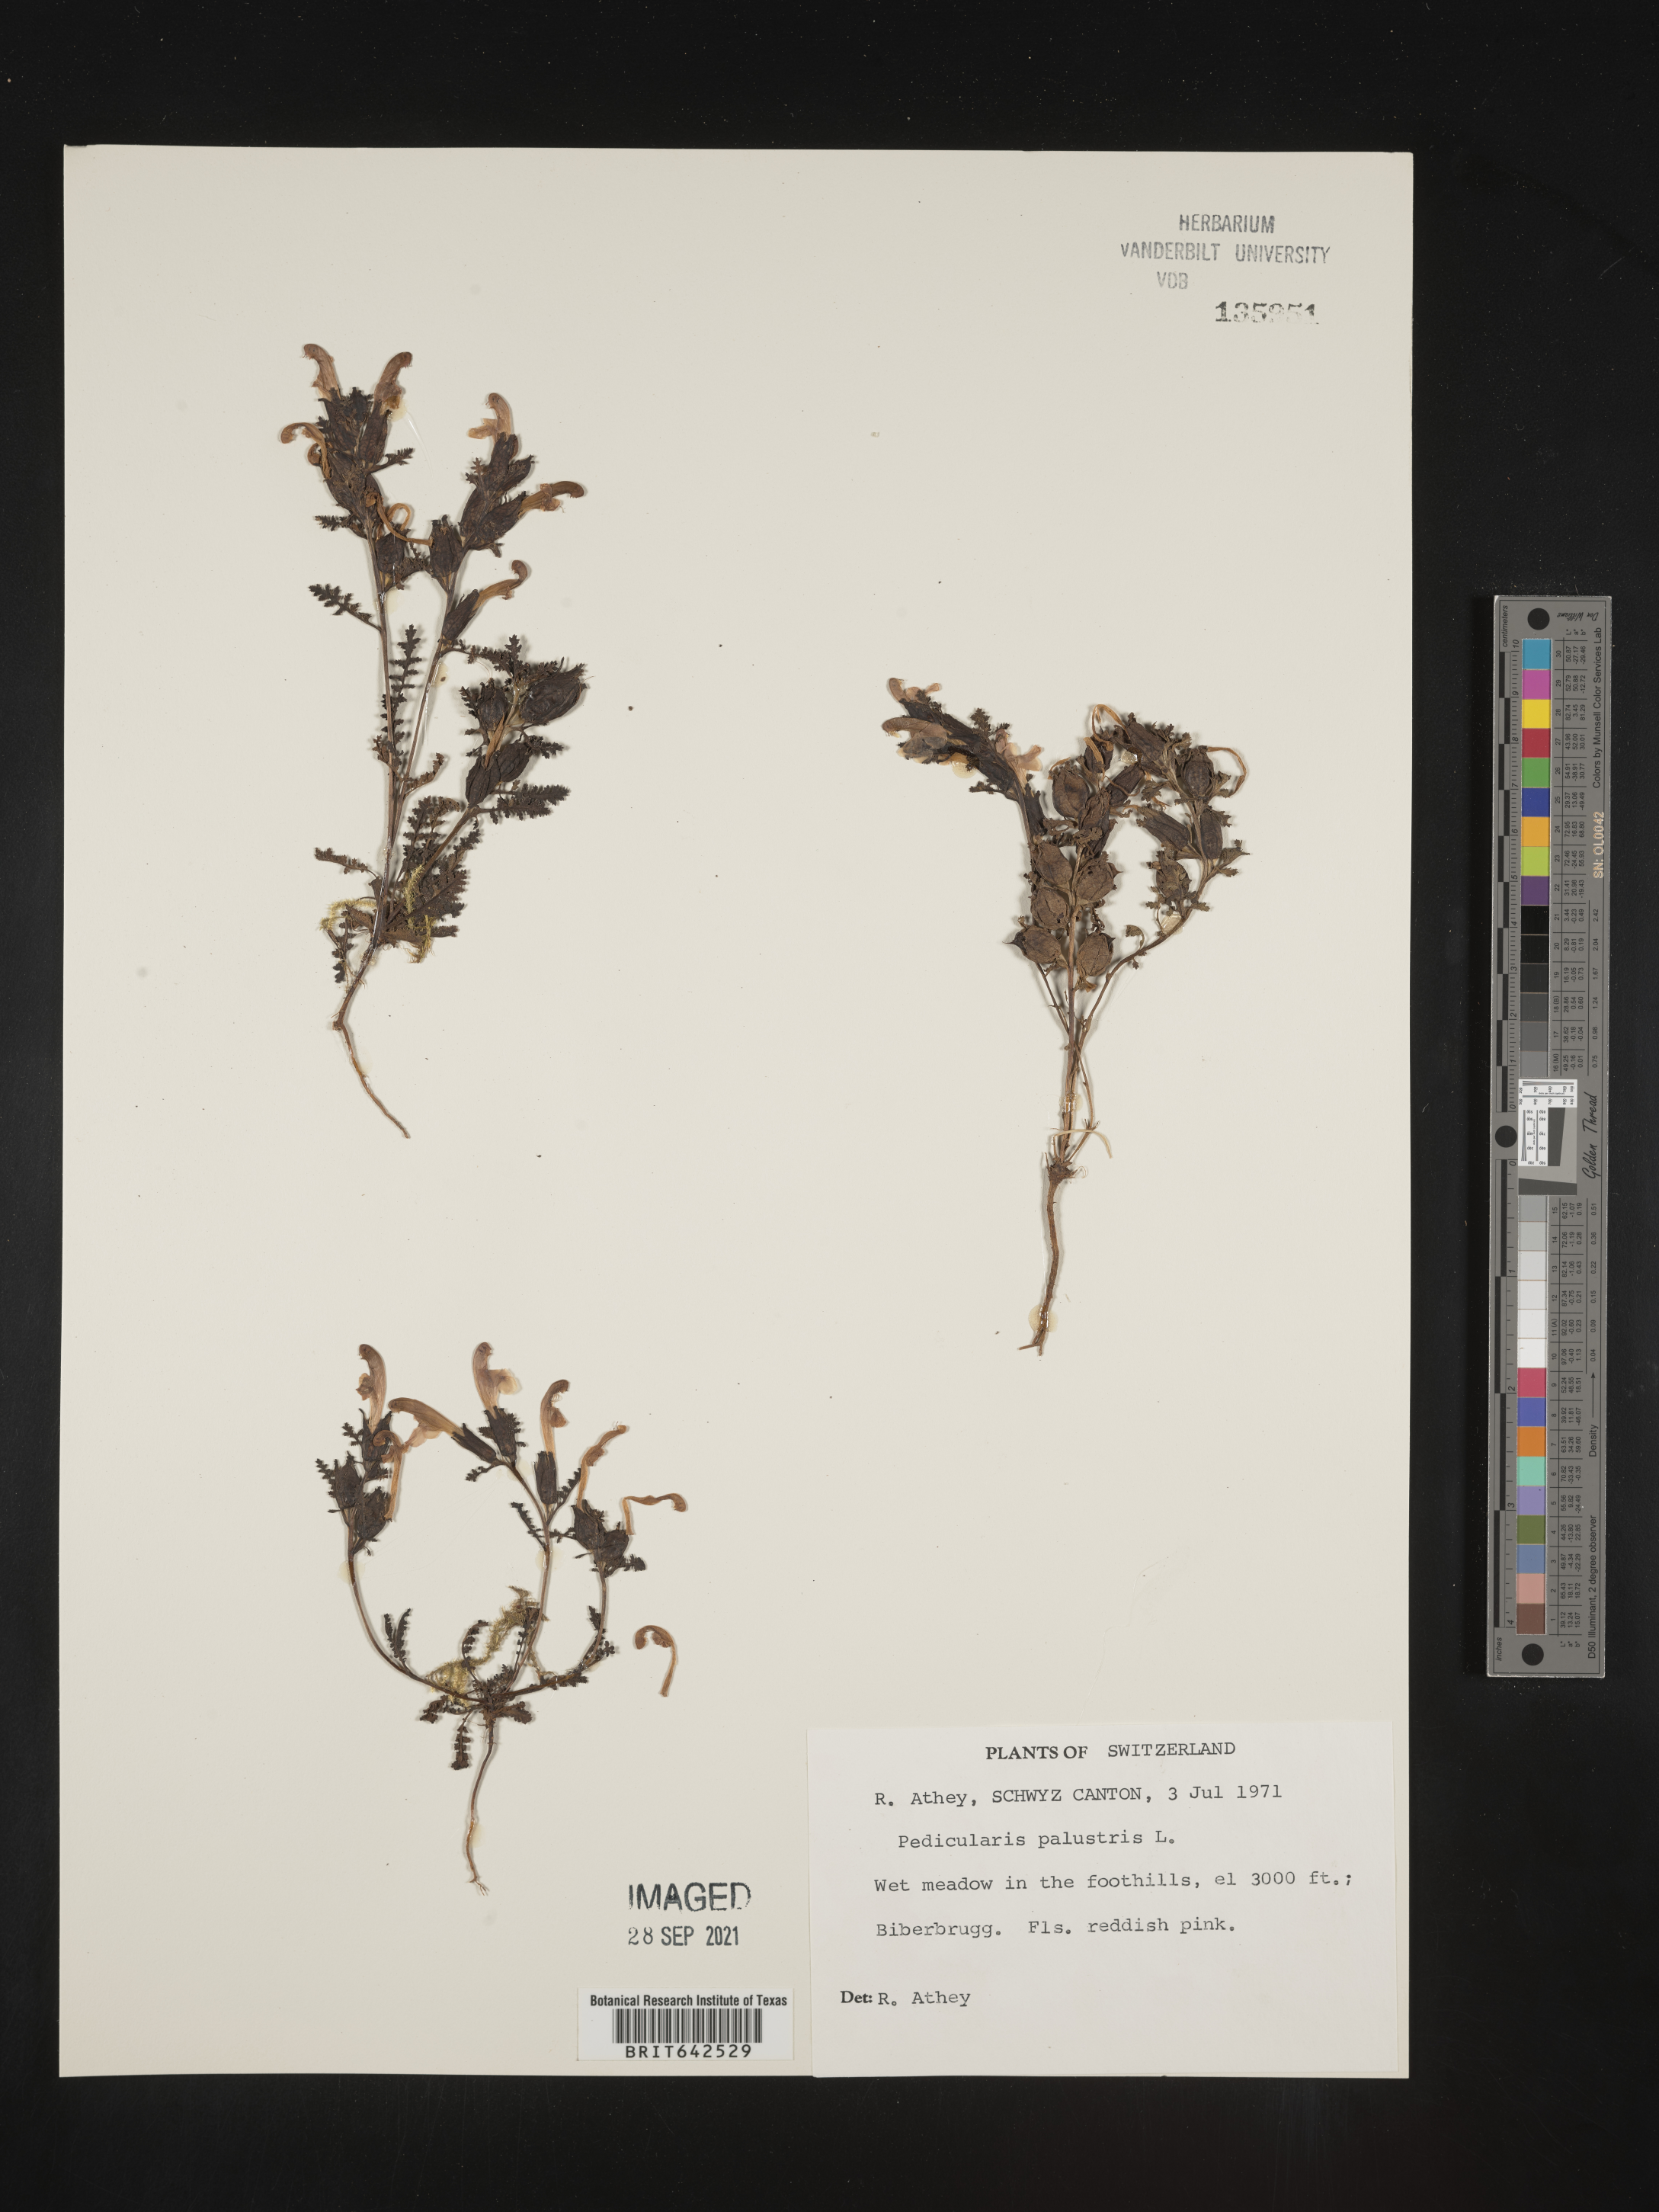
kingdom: Plantae
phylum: Tracheophyta
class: Magnoliopsida
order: Lamiales
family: Orobanchaceae
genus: Pedicularis
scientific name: Pedicularis
